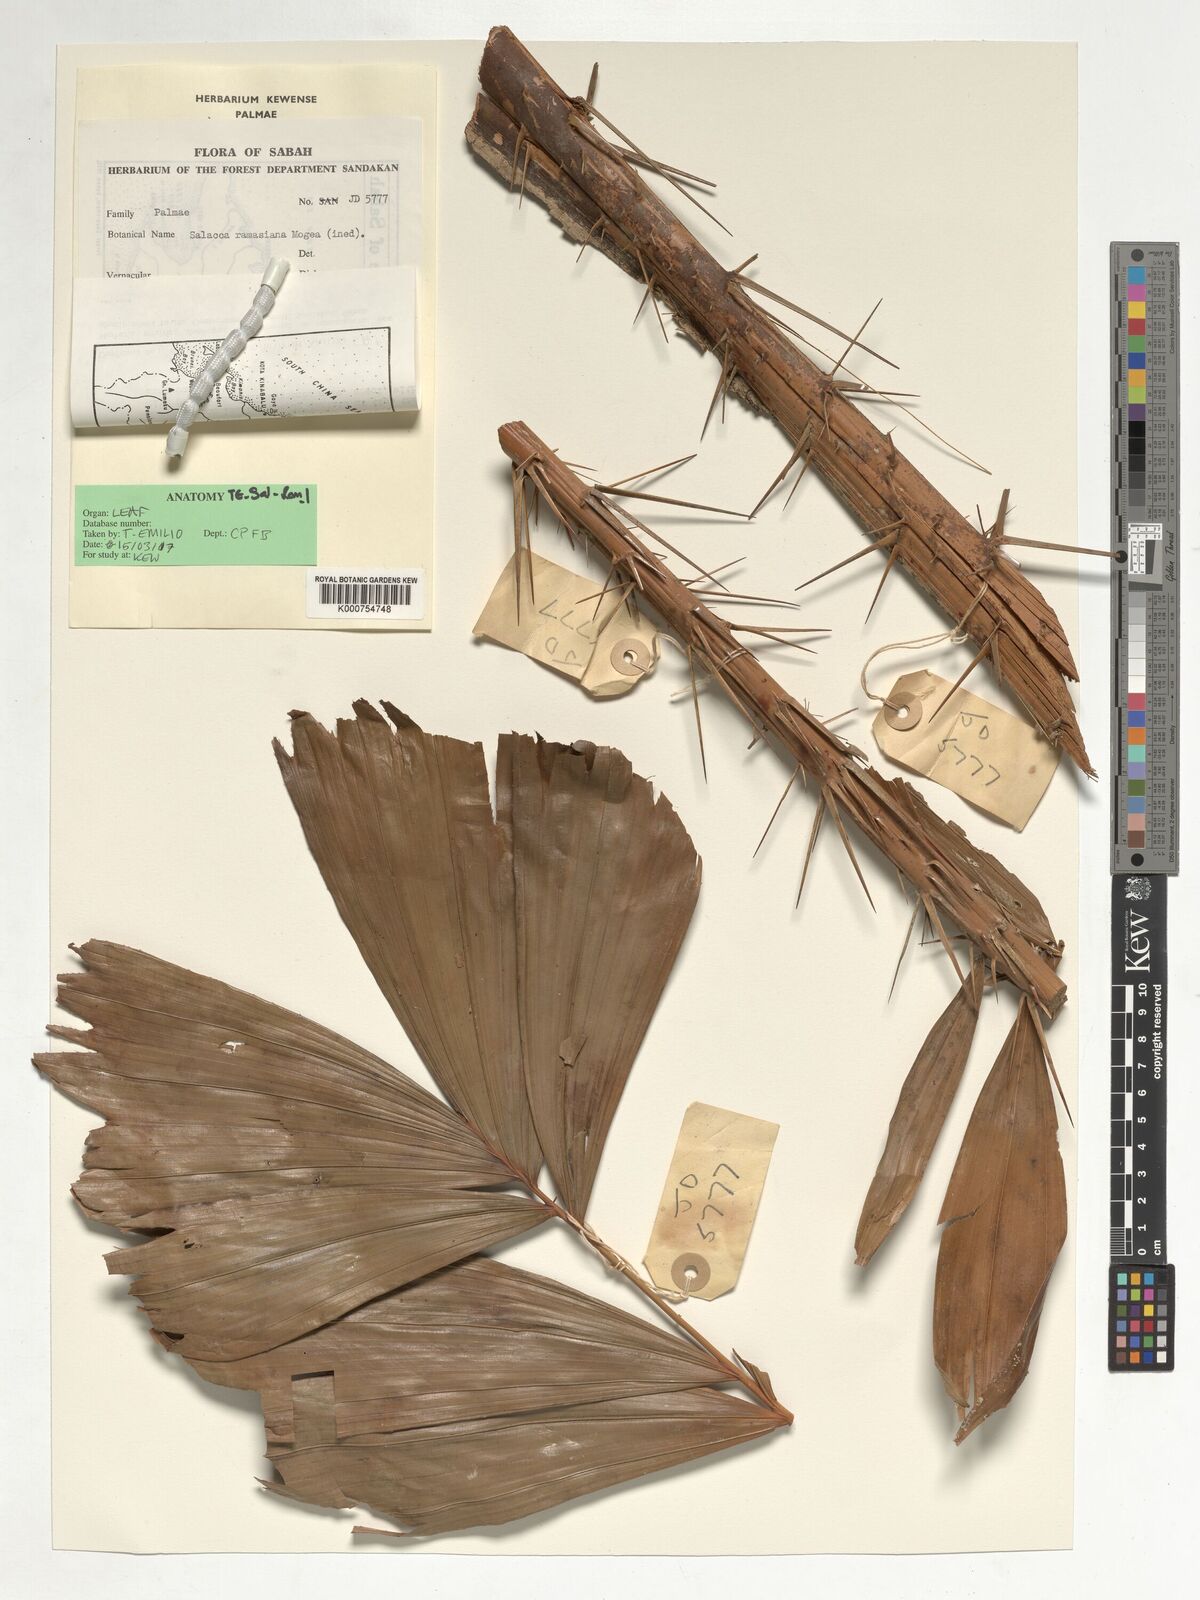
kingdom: Plantae
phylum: Tracheophyta
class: Liliopsida
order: Arecales
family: Arecaceae
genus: Salacca
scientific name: Salacca ramosiana
